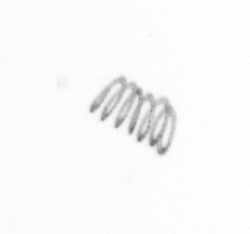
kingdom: Chromista
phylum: Ochrophyta
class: Bacillariophyceae
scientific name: Bacillariophyceae
